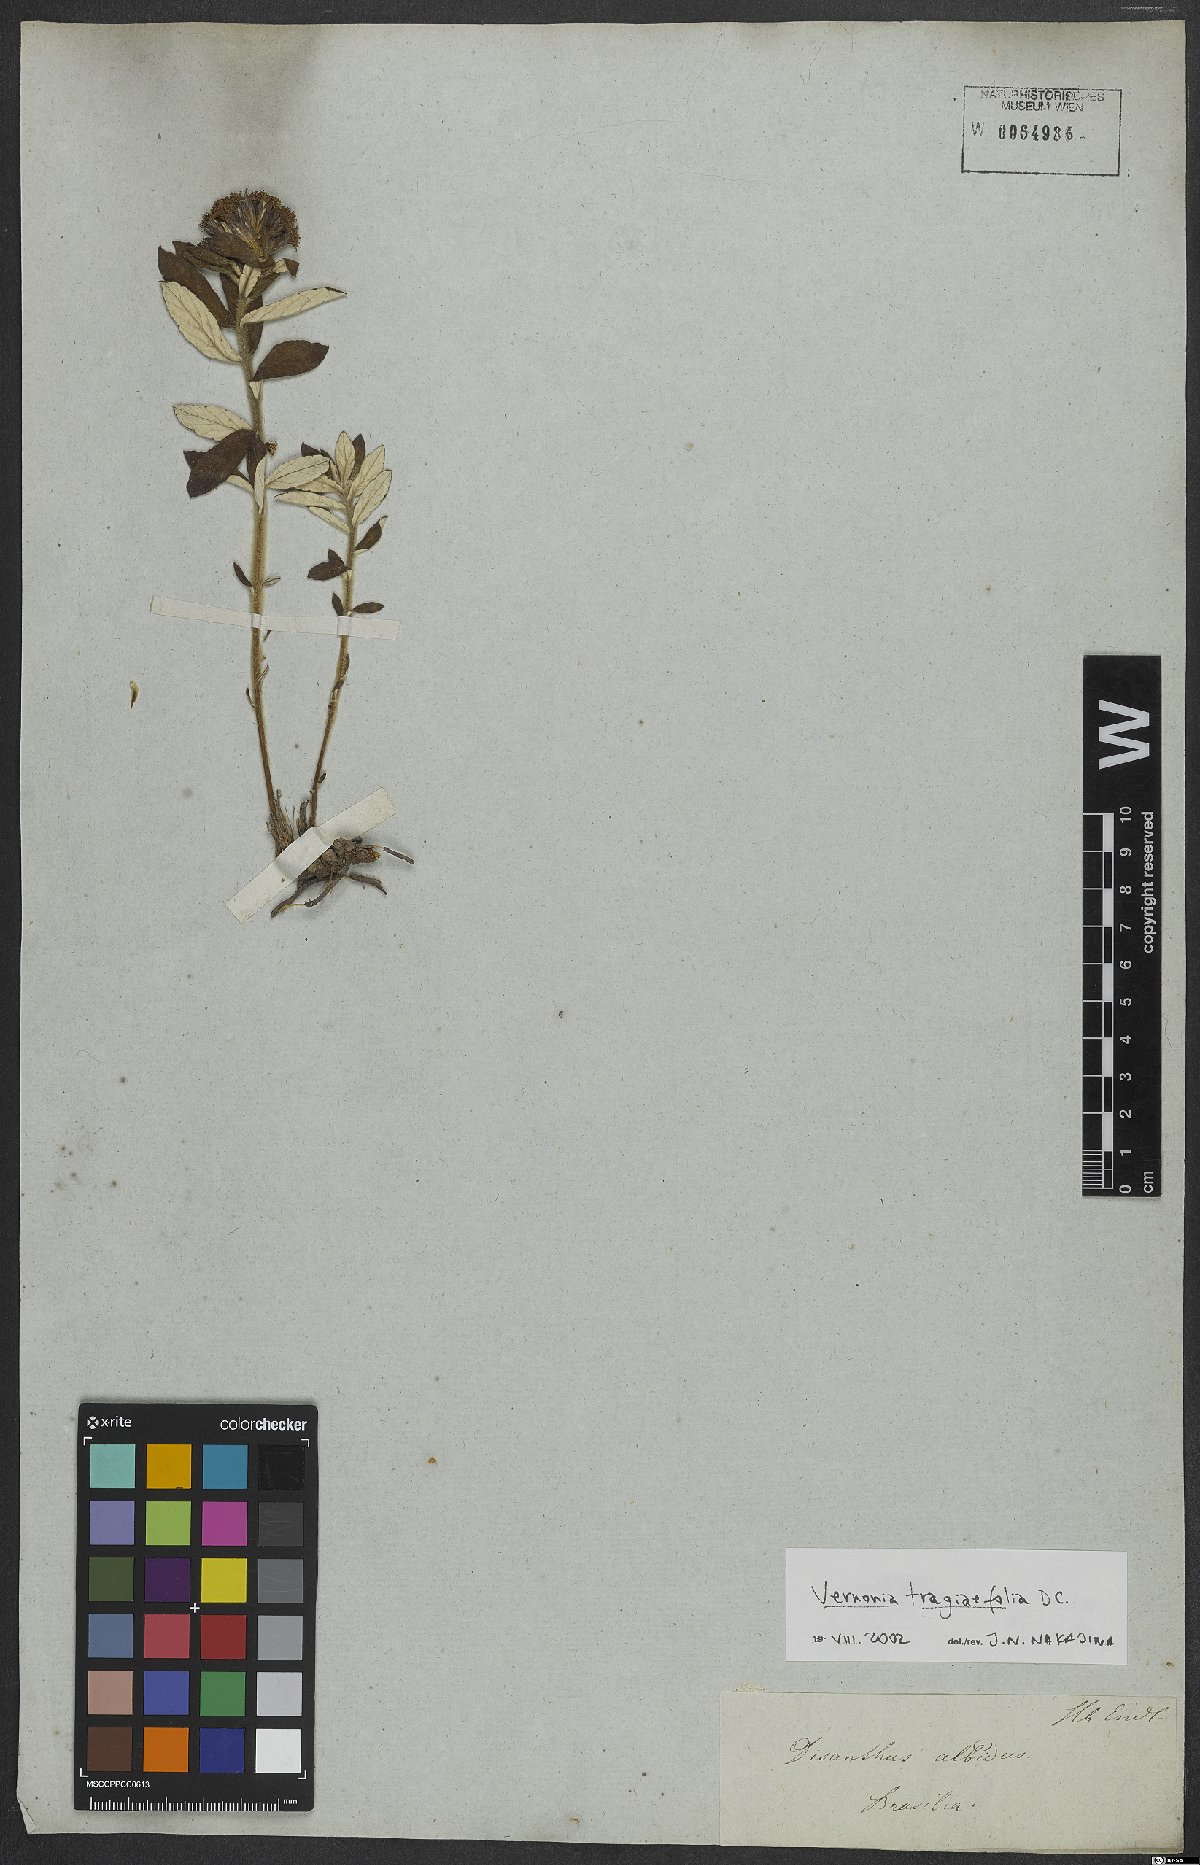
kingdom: Plantae
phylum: Tracheophyta
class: Magnoliopsida
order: Asterales
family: Asteraceae
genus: Stenocephalum
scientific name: Stenocephalum tragiifolium
